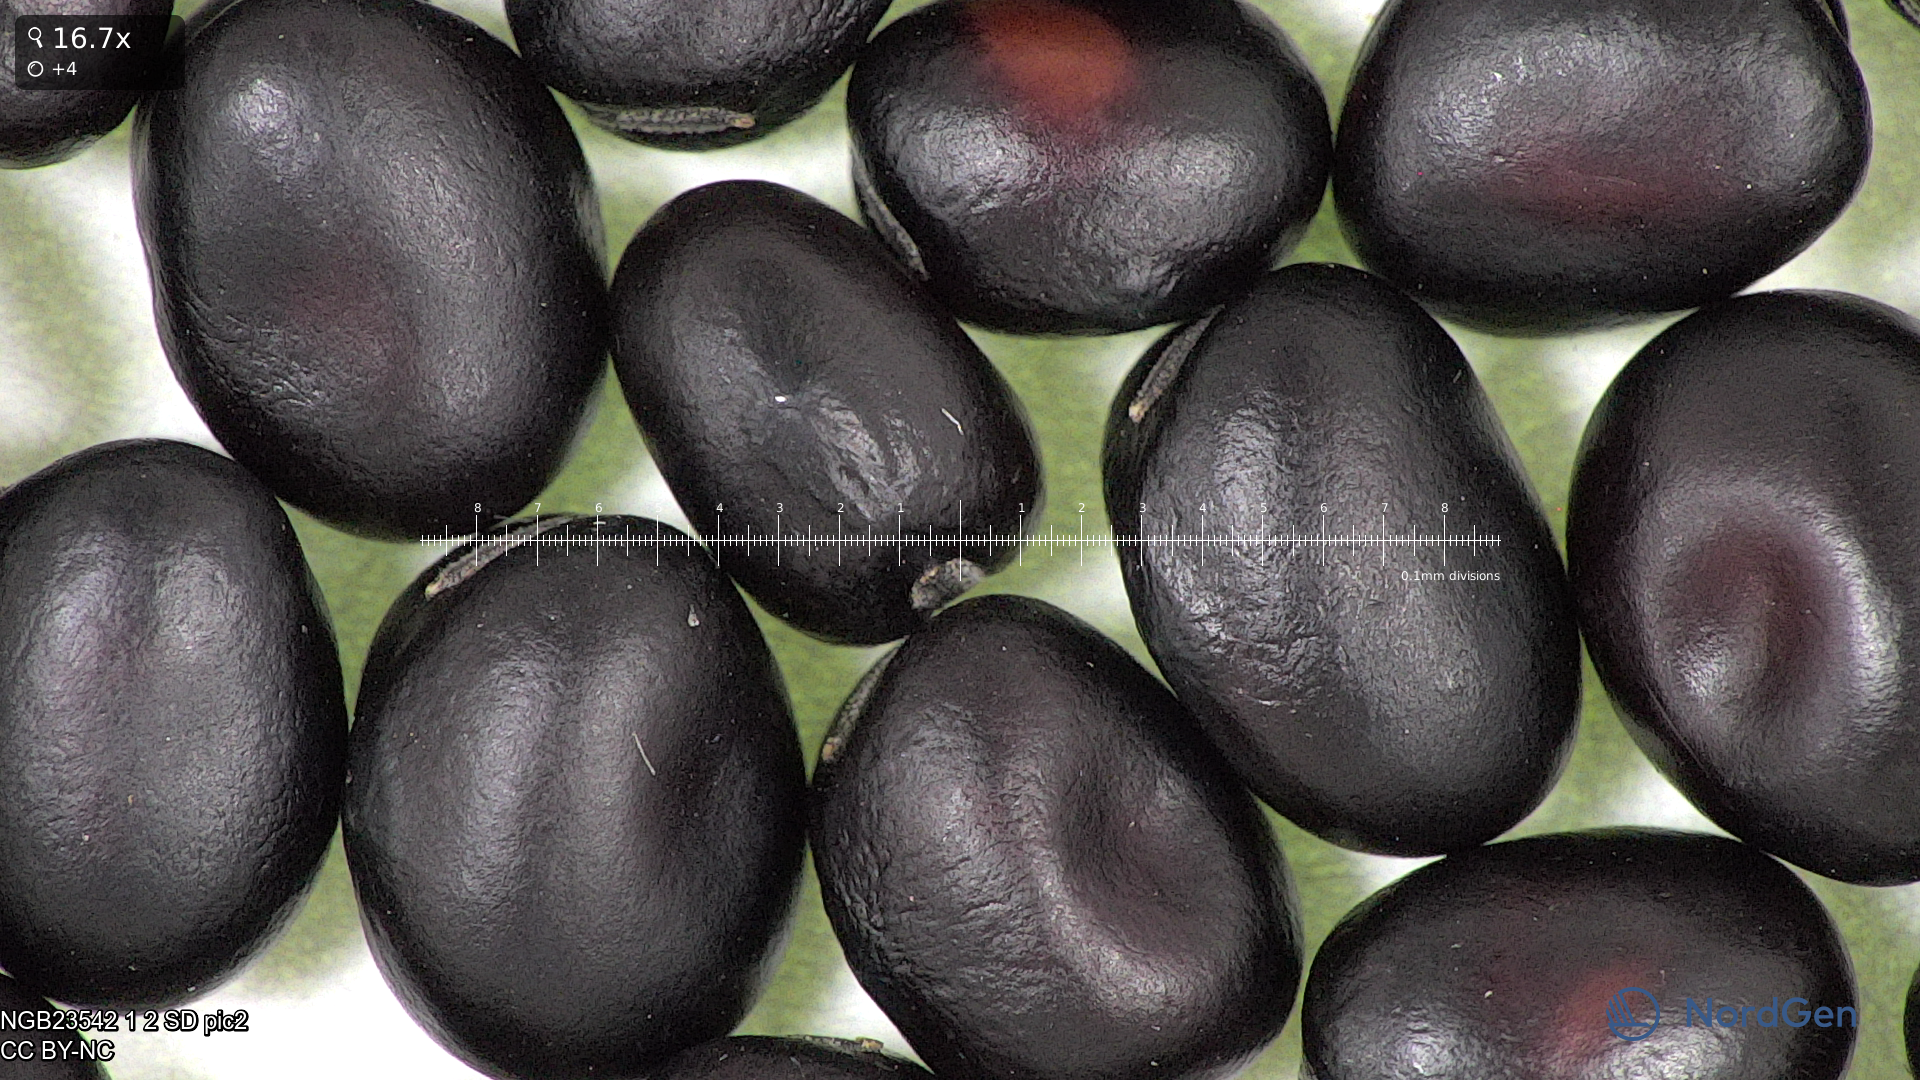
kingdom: Plantae
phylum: Tracheophyta
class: Magnoliopsida
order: Fabales
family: Fabaceae
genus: Vicia
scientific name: Vicia faba
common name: Broad bean
